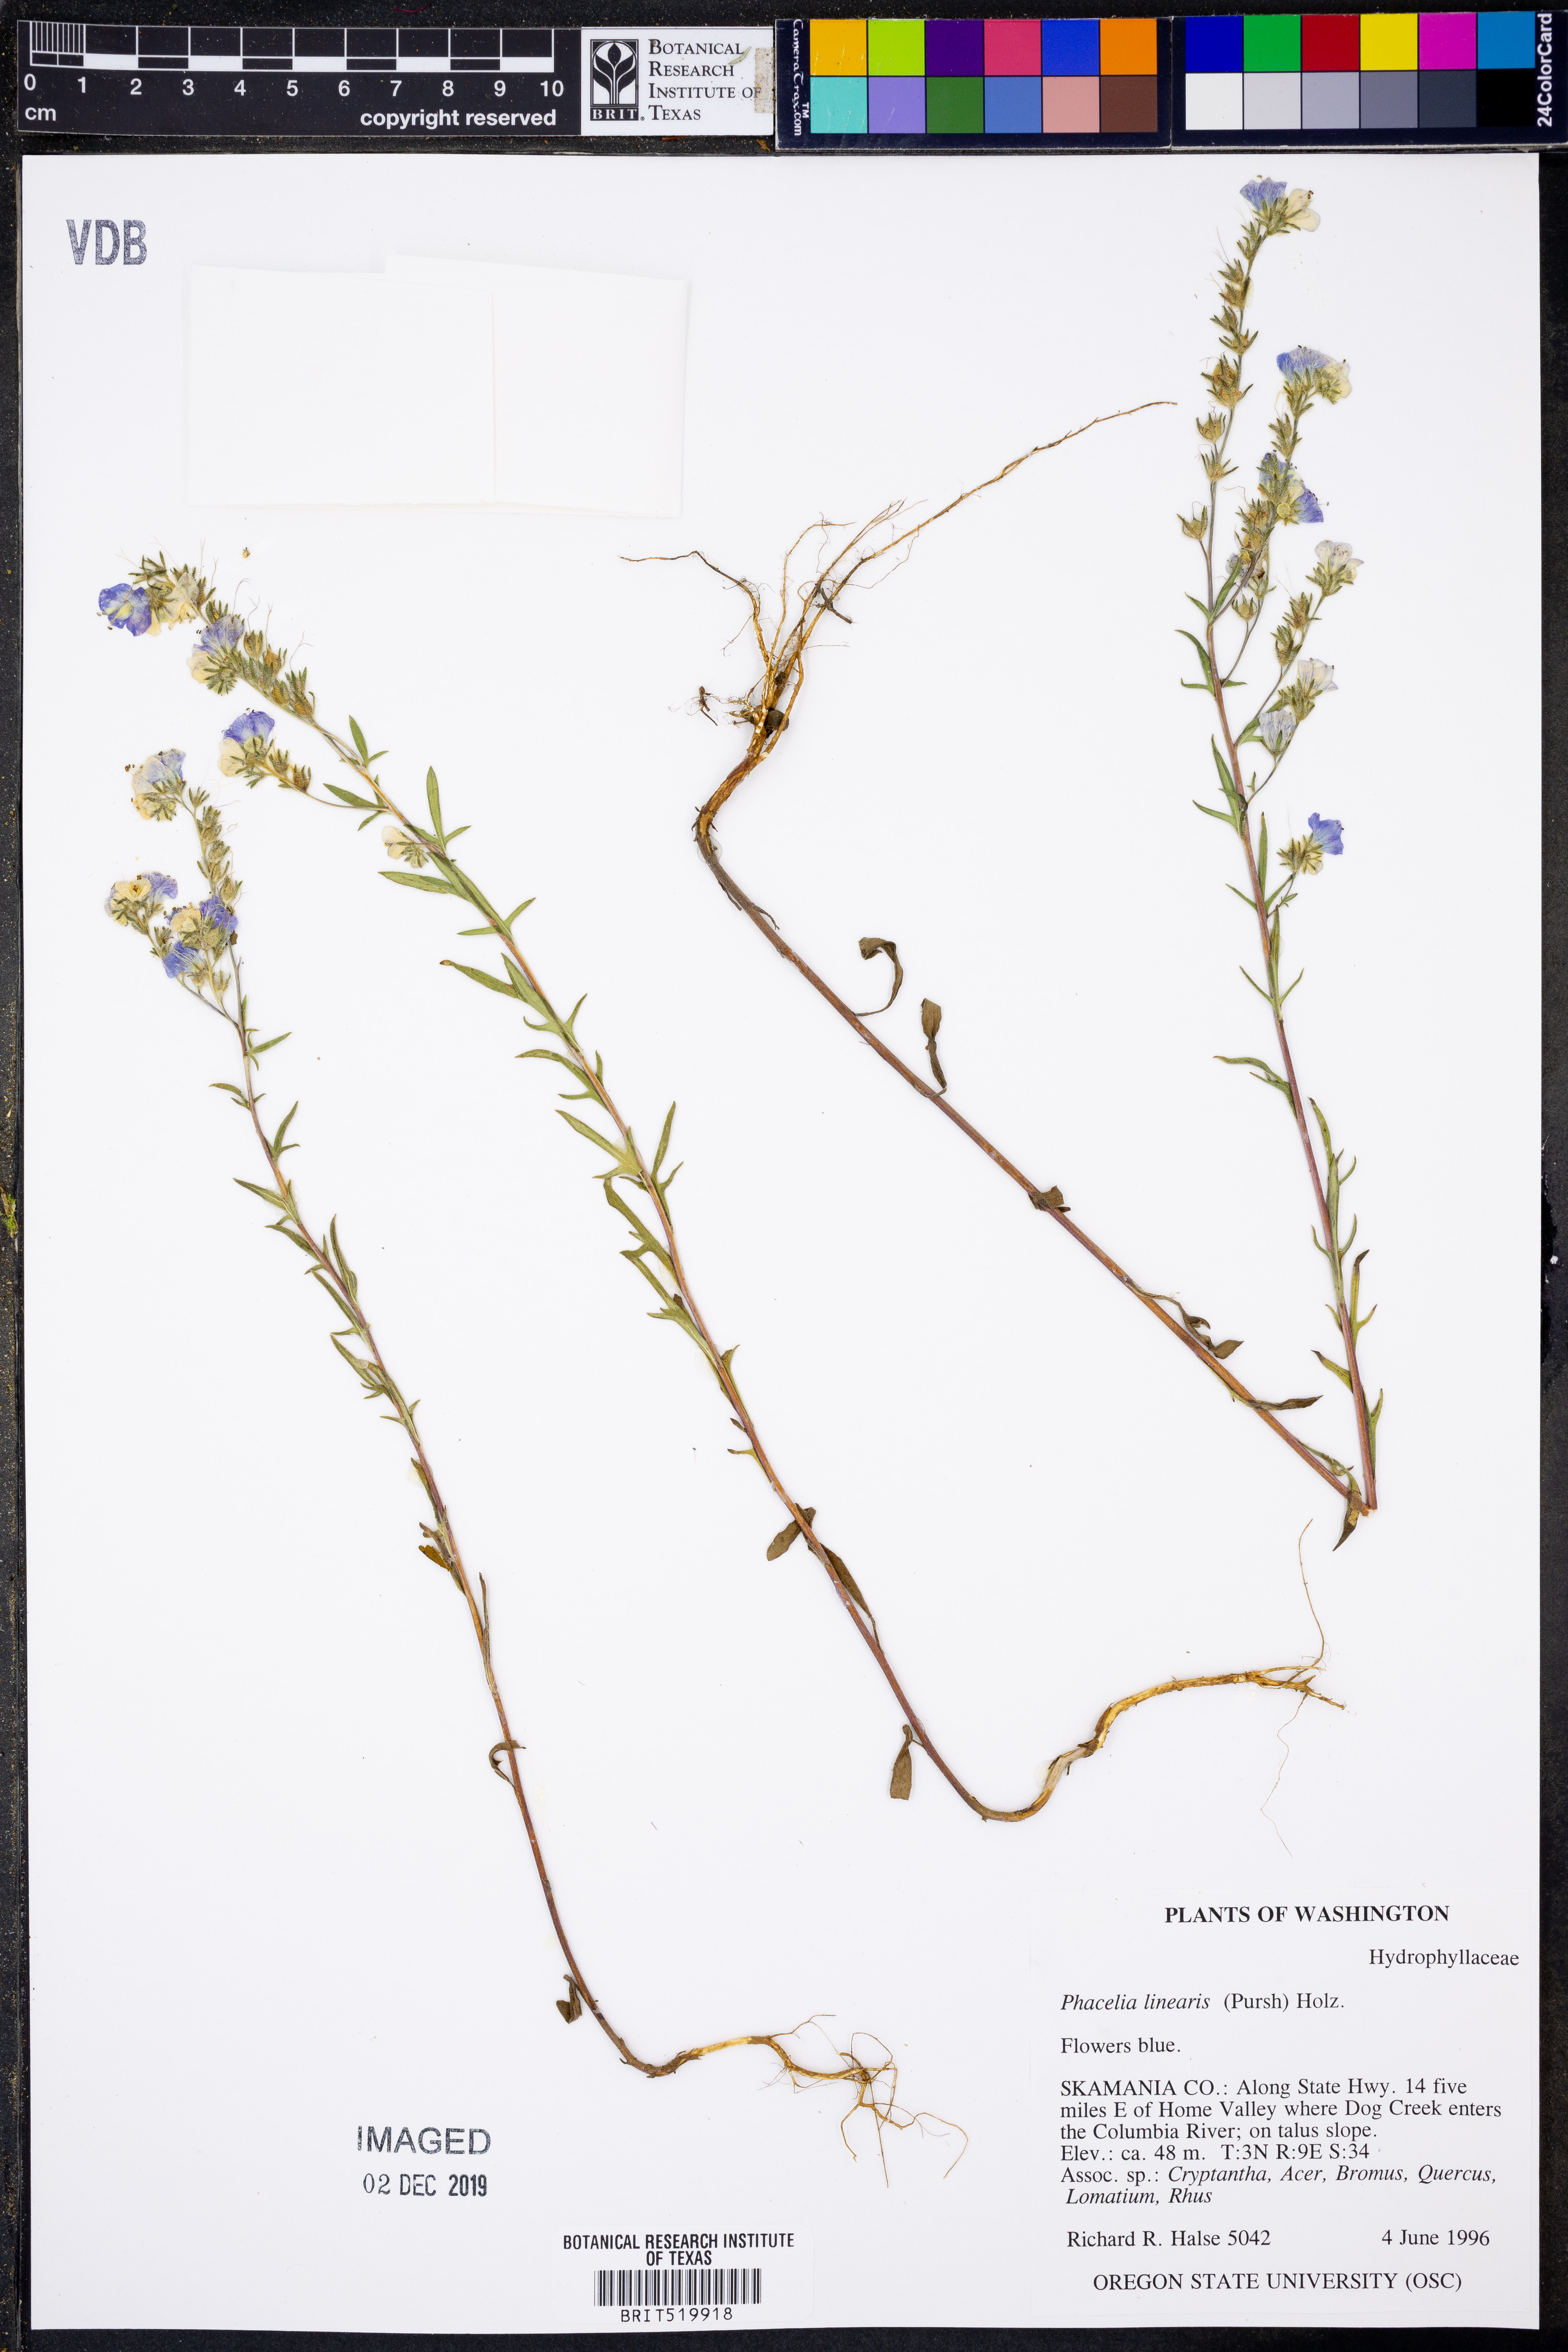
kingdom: Plantae
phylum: Tracheophyta
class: Magnoliopsida
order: Boraginales
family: Hydrophyllaceae
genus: Phacelia
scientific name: Phacelia linearis
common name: Linear-leaved phacelia
